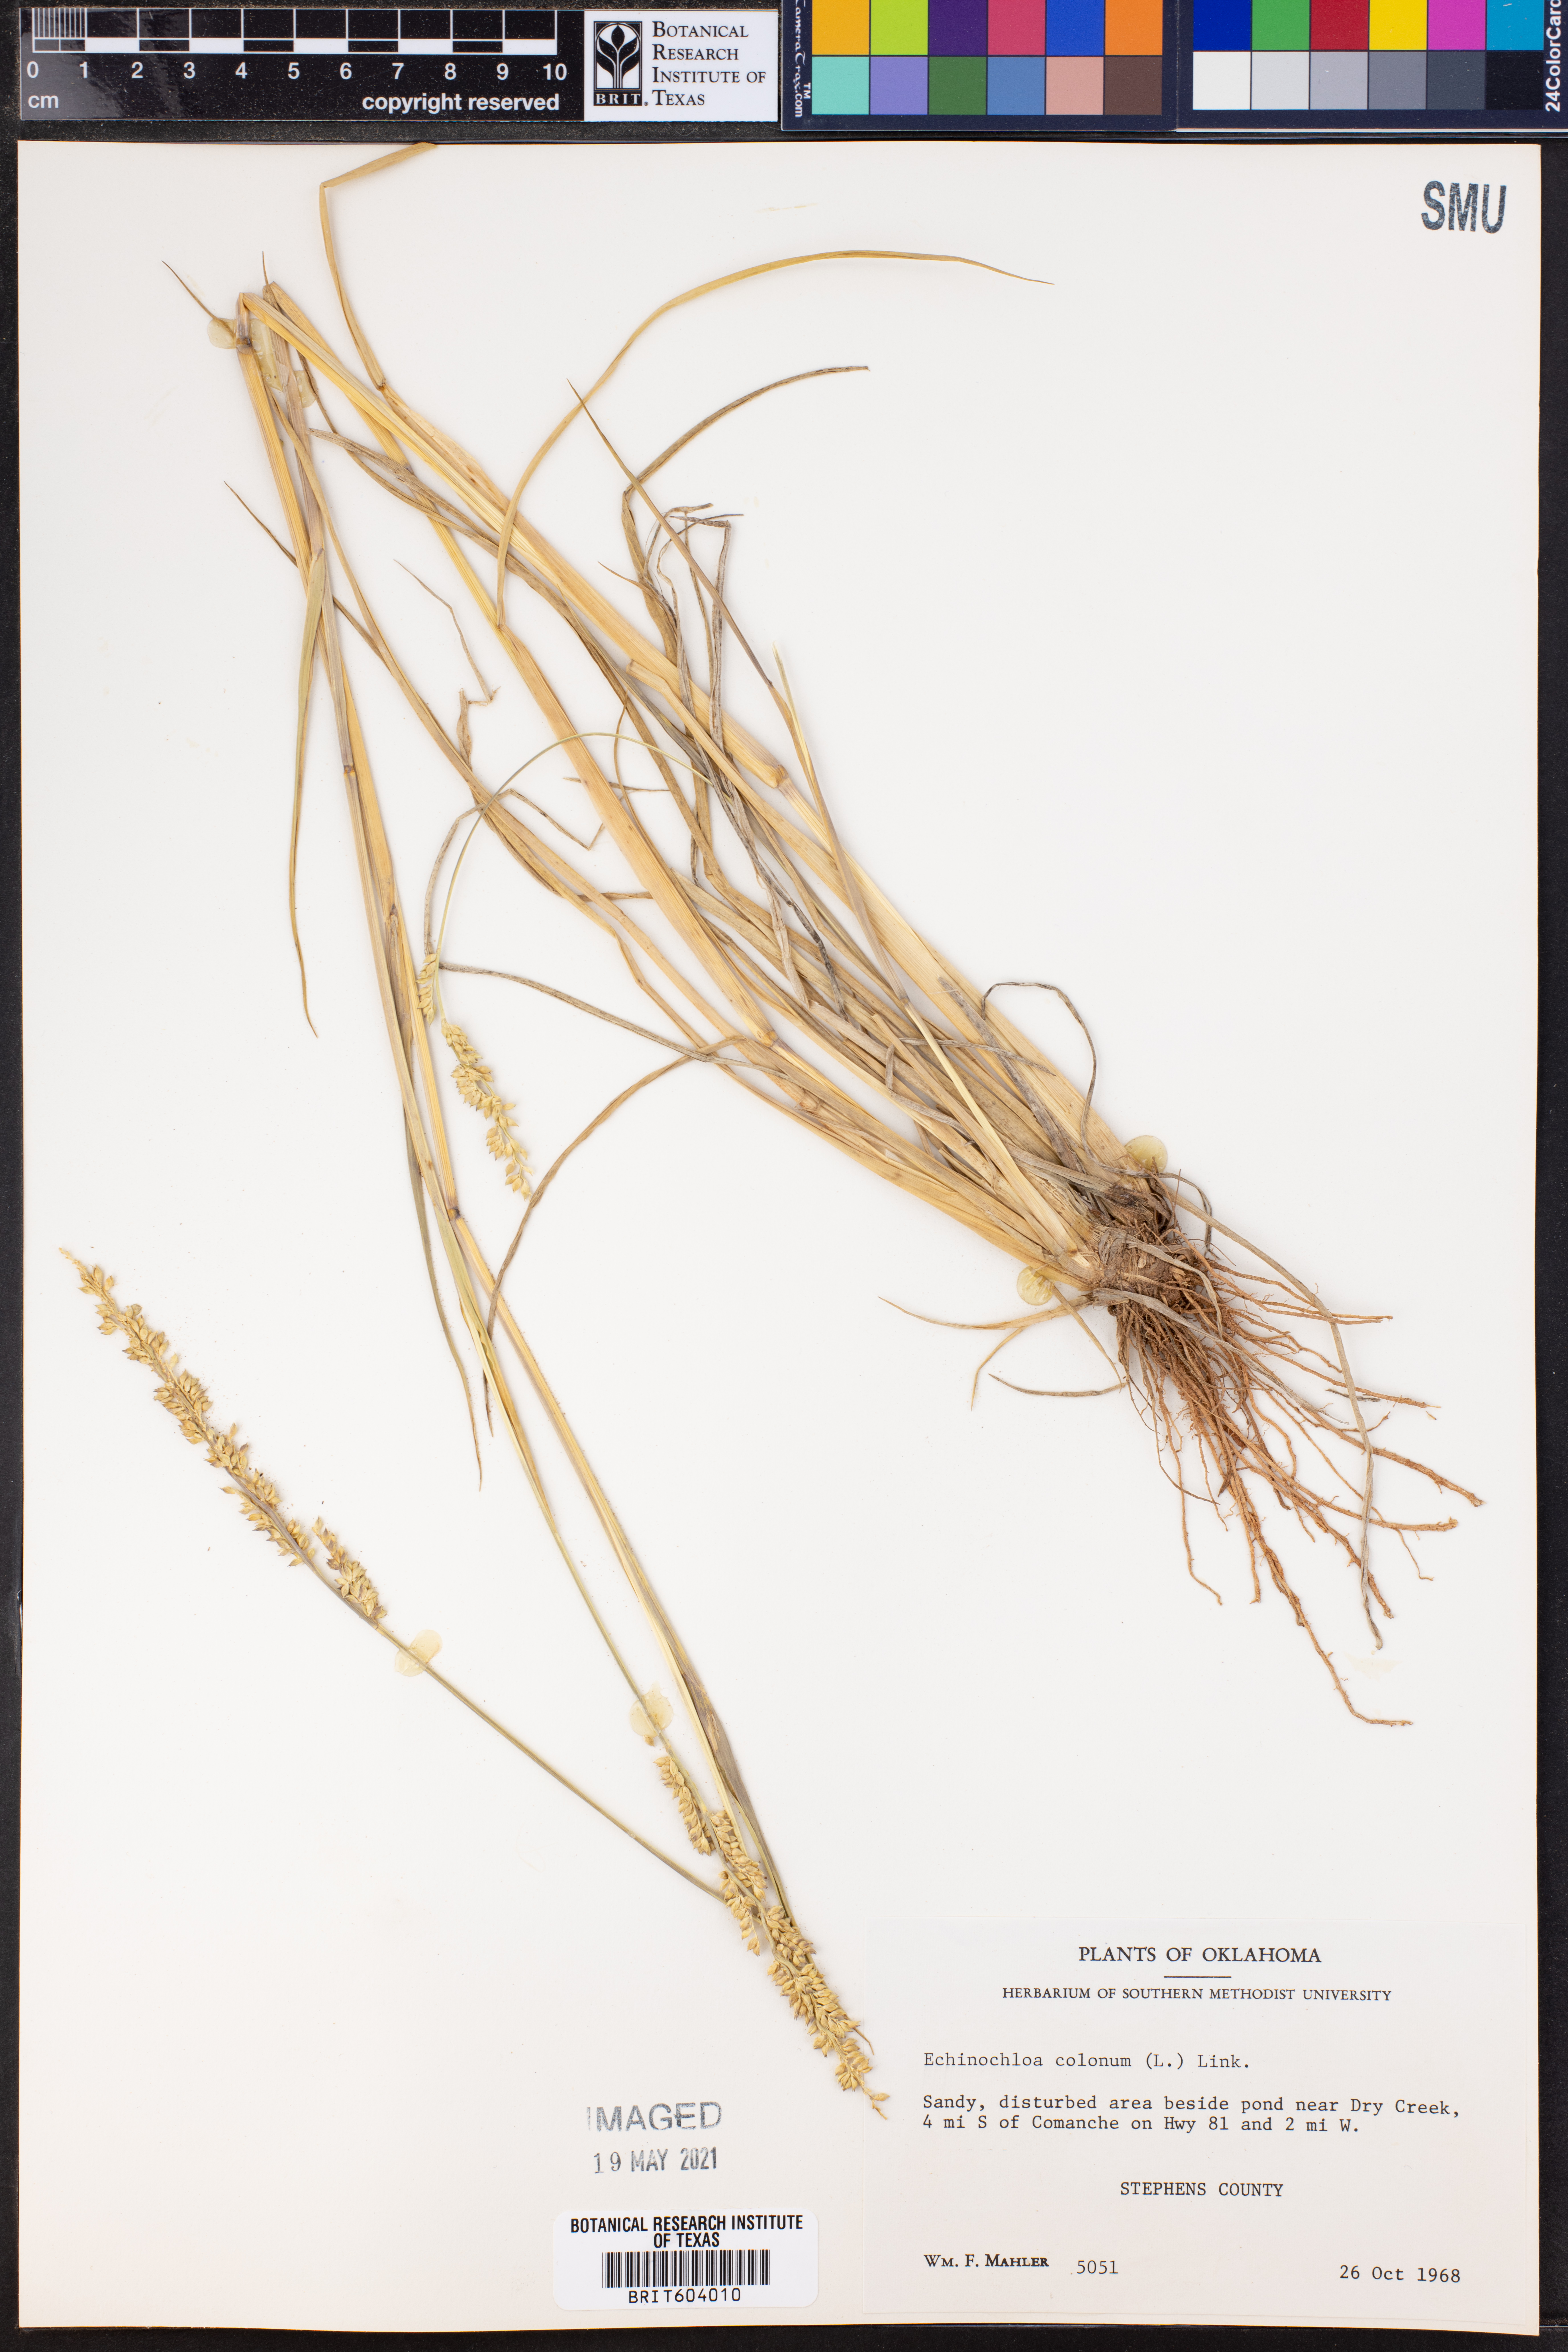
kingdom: Plantae
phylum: Tracheophyta
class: Liliopsida
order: Poales
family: Poaceae
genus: Echinochloa
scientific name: Echinochloa colonum
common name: Jungle rice
